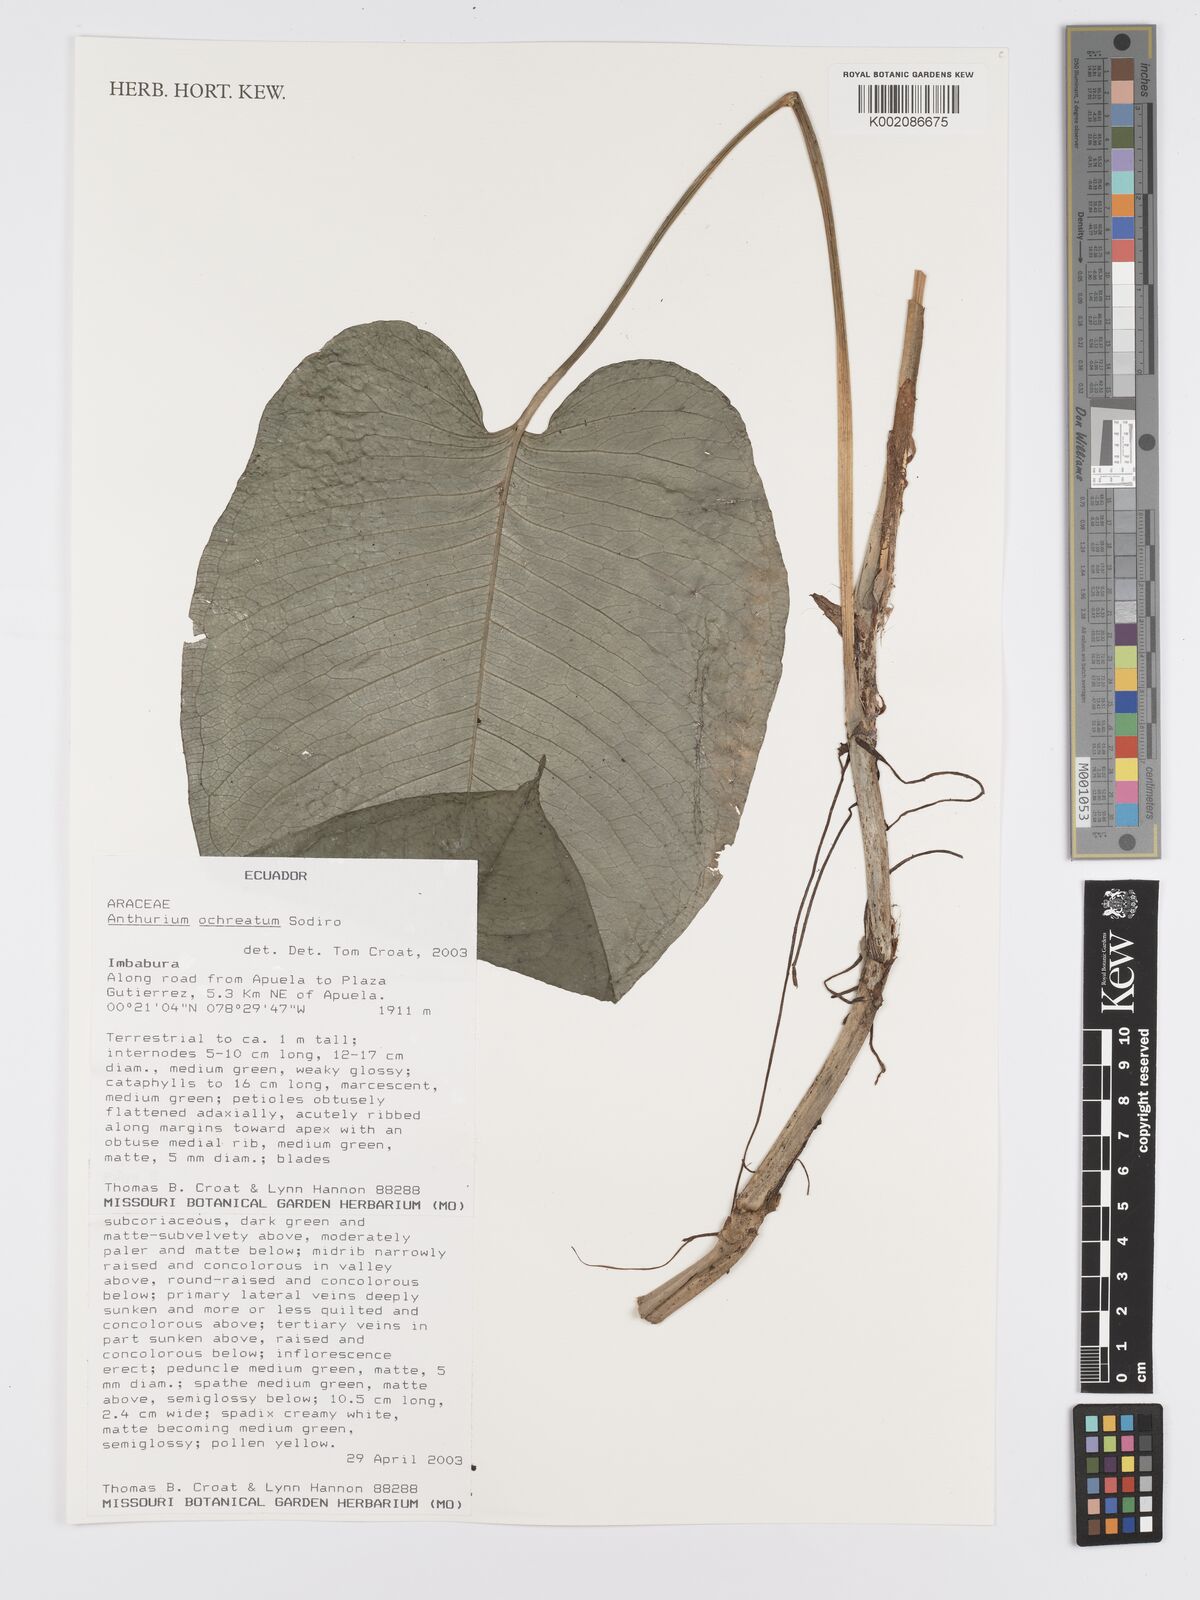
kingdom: Plantae
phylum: Tracheophyta
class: Liliopsida
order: Alismatales
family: Araceae
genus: Anthurium
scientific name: Anthurium ochreatum
